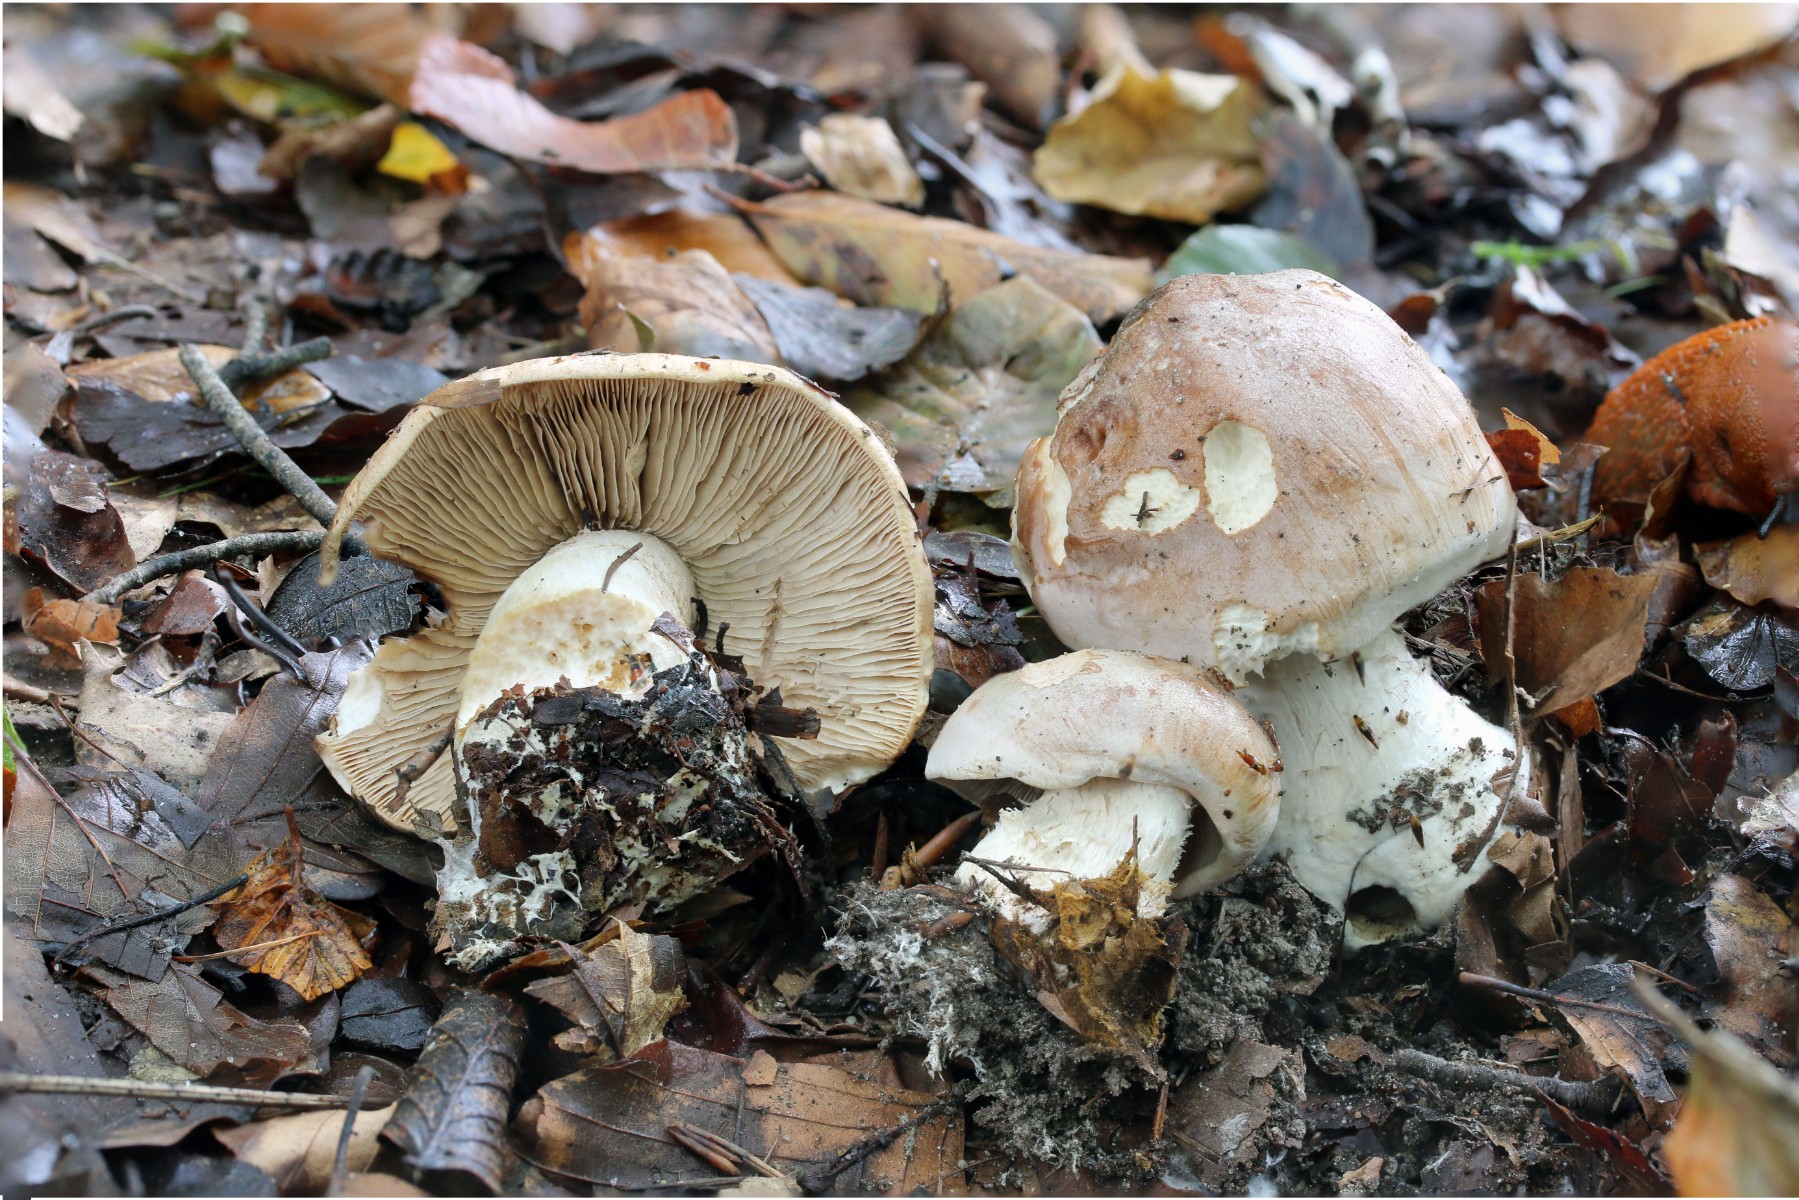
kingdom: Fungi
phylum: Basidiomycota
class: Agaricomycetes
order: Agaricales
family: Hymenogastraceae
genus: Hebeloma
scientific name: Hebeloma sinapizans
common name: ræddike-tåreblad
